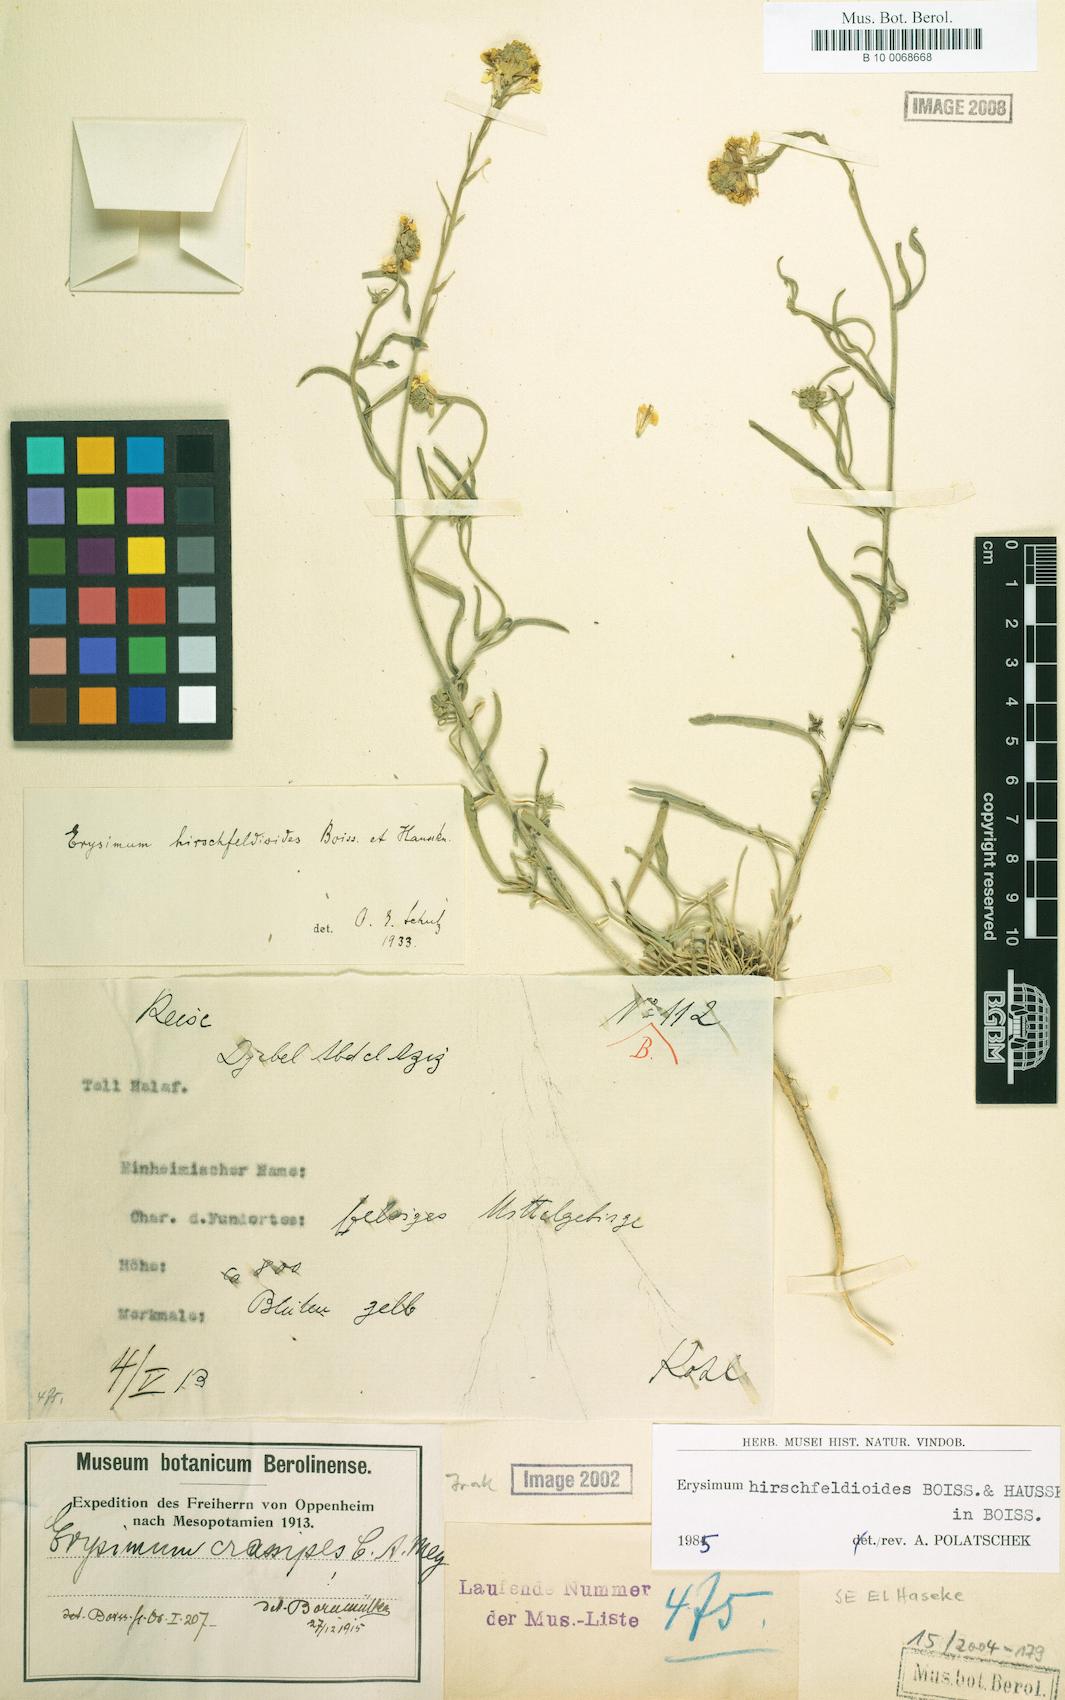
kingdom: Plantae
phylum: Tracheophyta
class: Magnoliopsida
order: Brassicales
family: Brassicaceae
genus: Erysimum
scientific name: Erysimum hirschfeldioides
